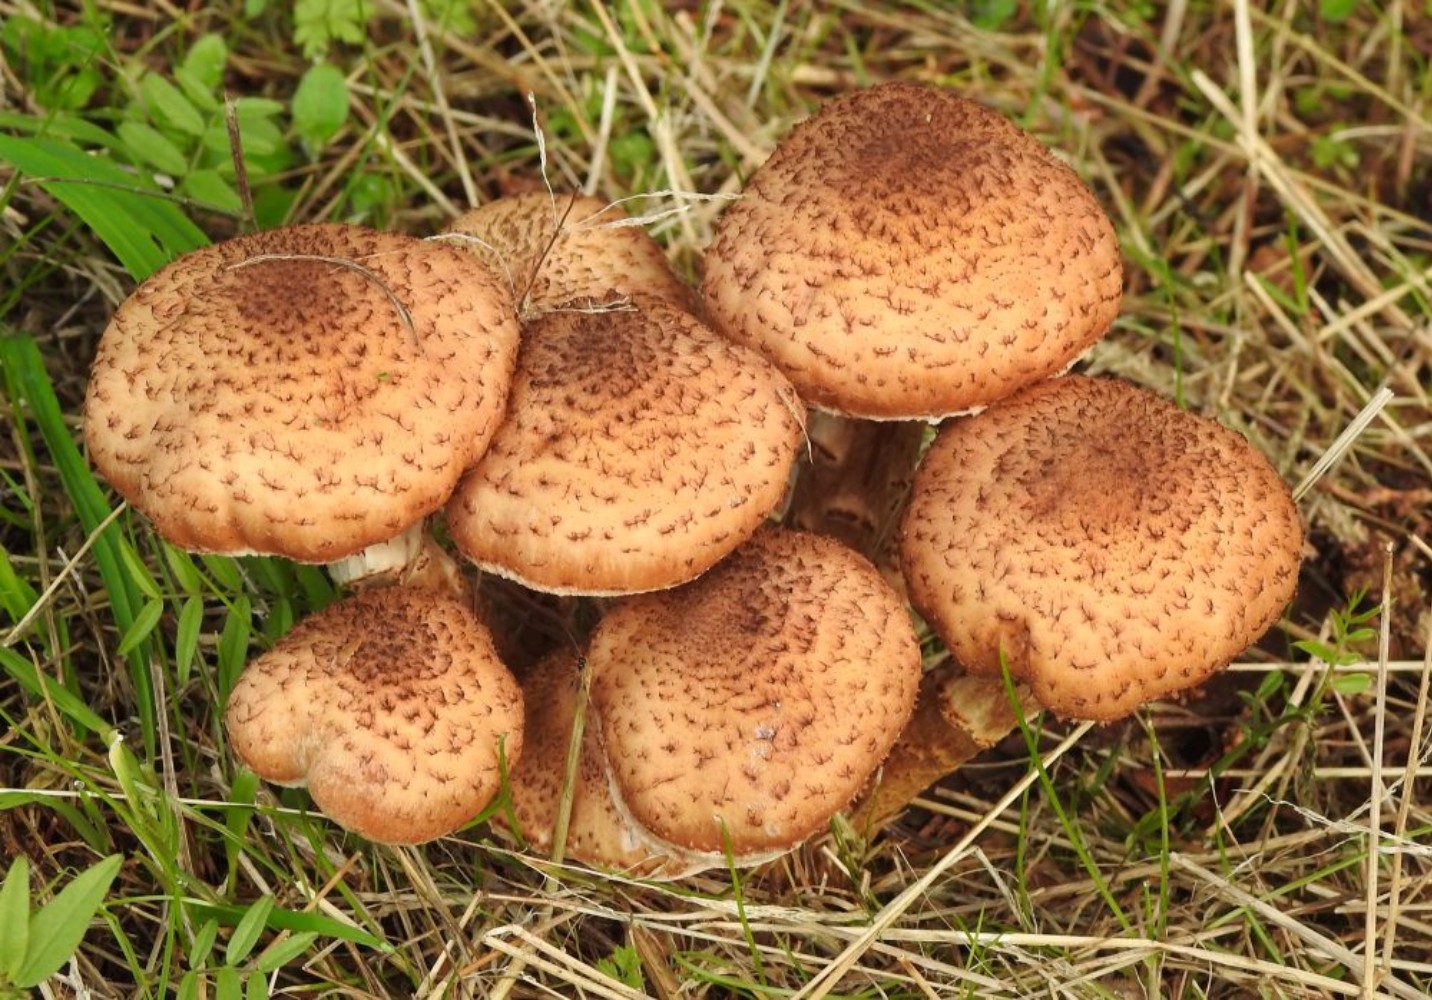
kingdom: Fungi
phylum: Basidiomycota
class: Agaricomycetes
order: Agaricales
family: Physalacriaceae
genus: Armillaria
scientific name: Armillaria ostoyae
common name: mørk honningsvamp
